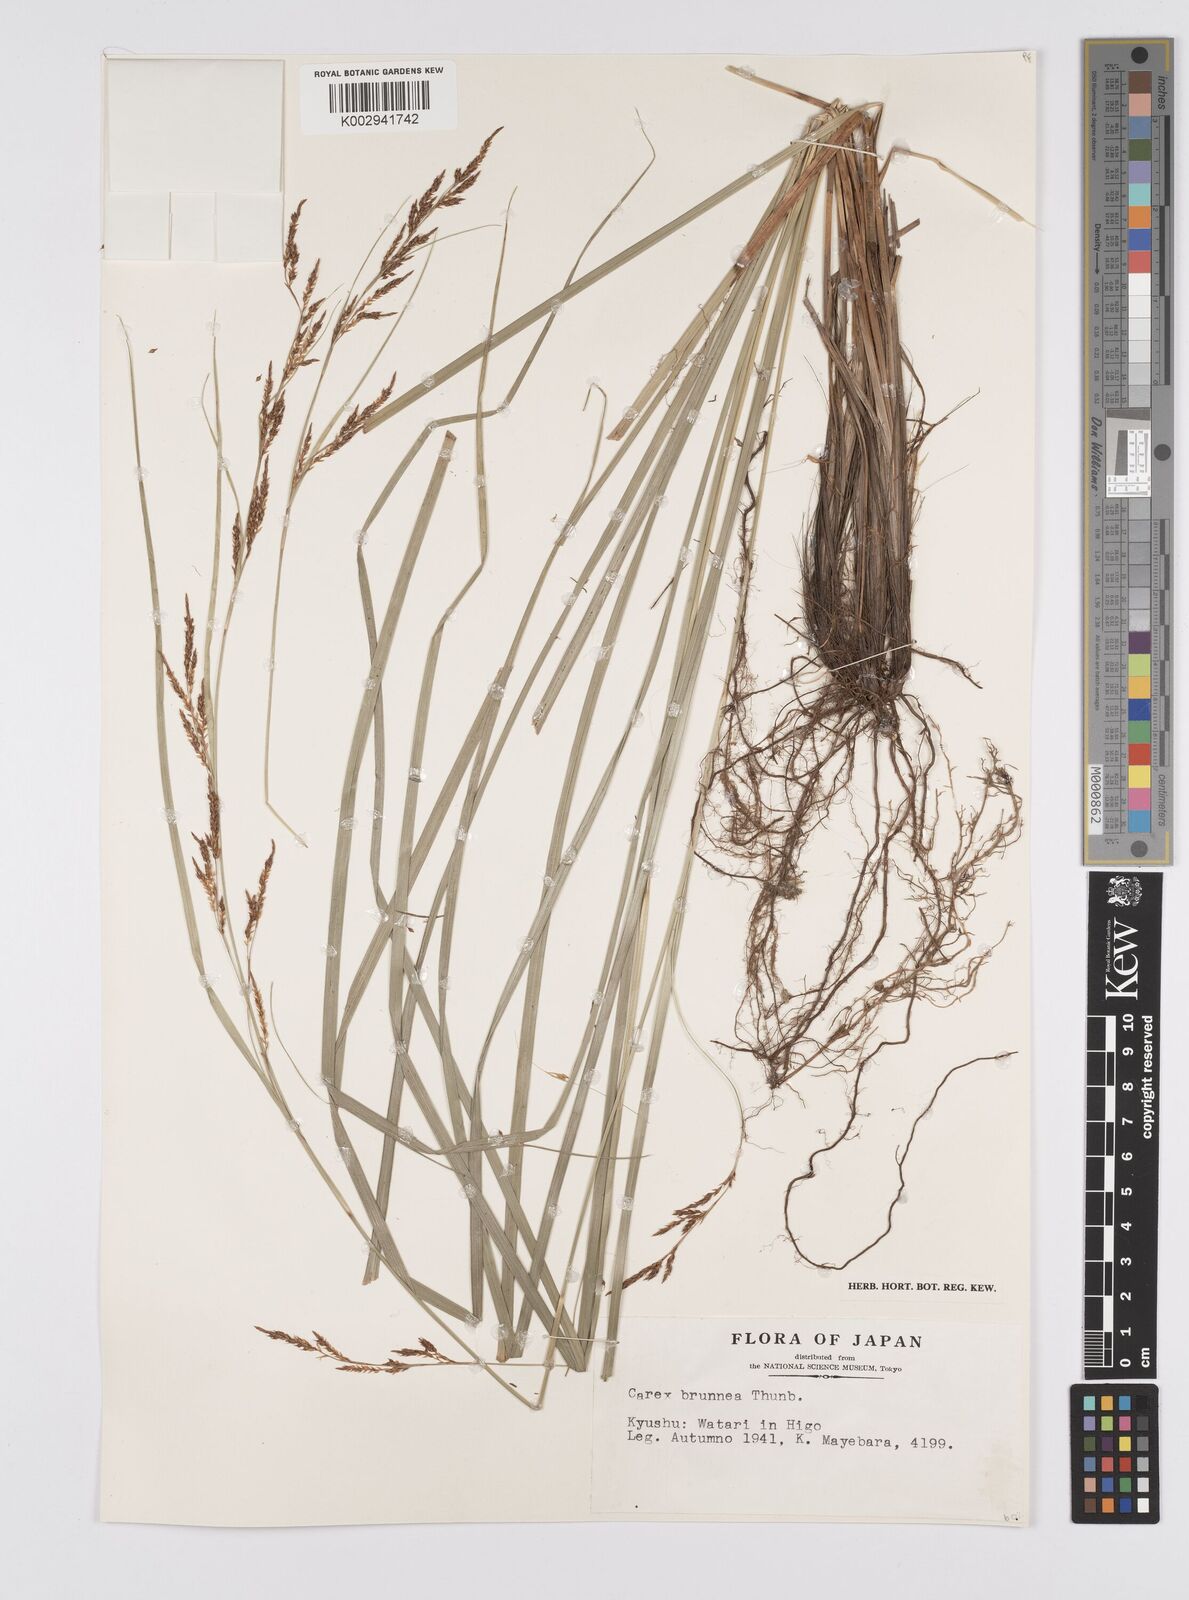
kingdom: Plantae
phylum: Tracheophyta
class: Liliopsida
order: Poales
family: Cyperaceae
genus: Carex
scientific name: Carex brunnea
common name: Greater brown sedge
